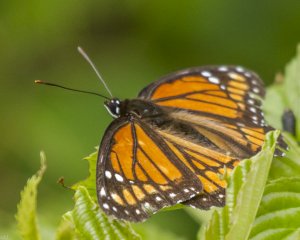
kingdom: Animalia
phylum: Arthropoda
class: Insecta
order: Lepidoptera
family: Nymphalidae
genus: Limenitis
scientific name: Limenitis archippus
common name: Viceroy
